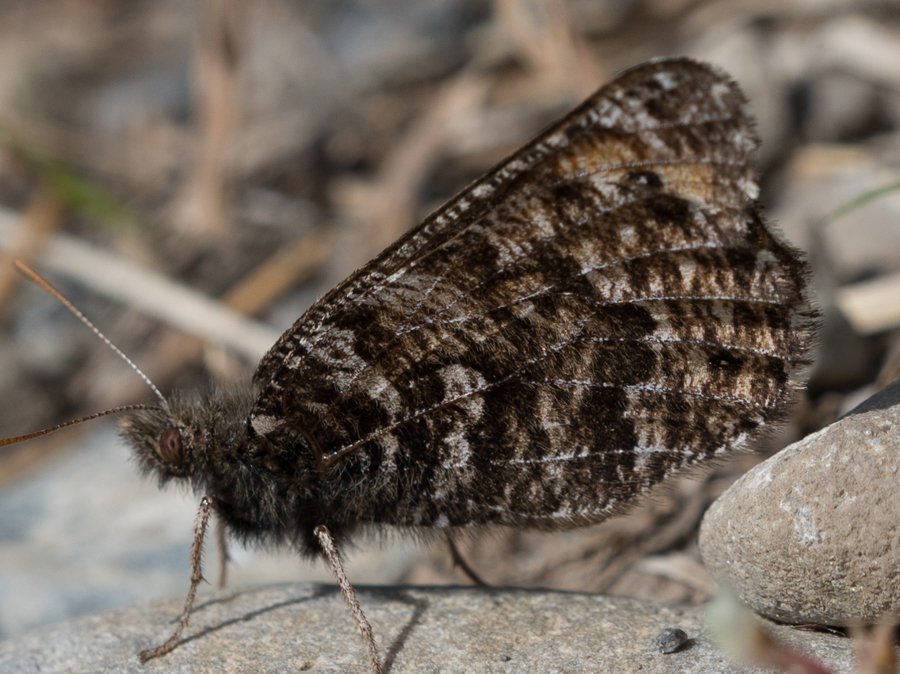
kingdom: Animalia
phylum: Arthropoda
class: Insecta
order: Lepidoptera
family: Nymphalidae
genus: Oeneis
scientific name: Oeneis chryxus
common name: Chryxus Arctic
